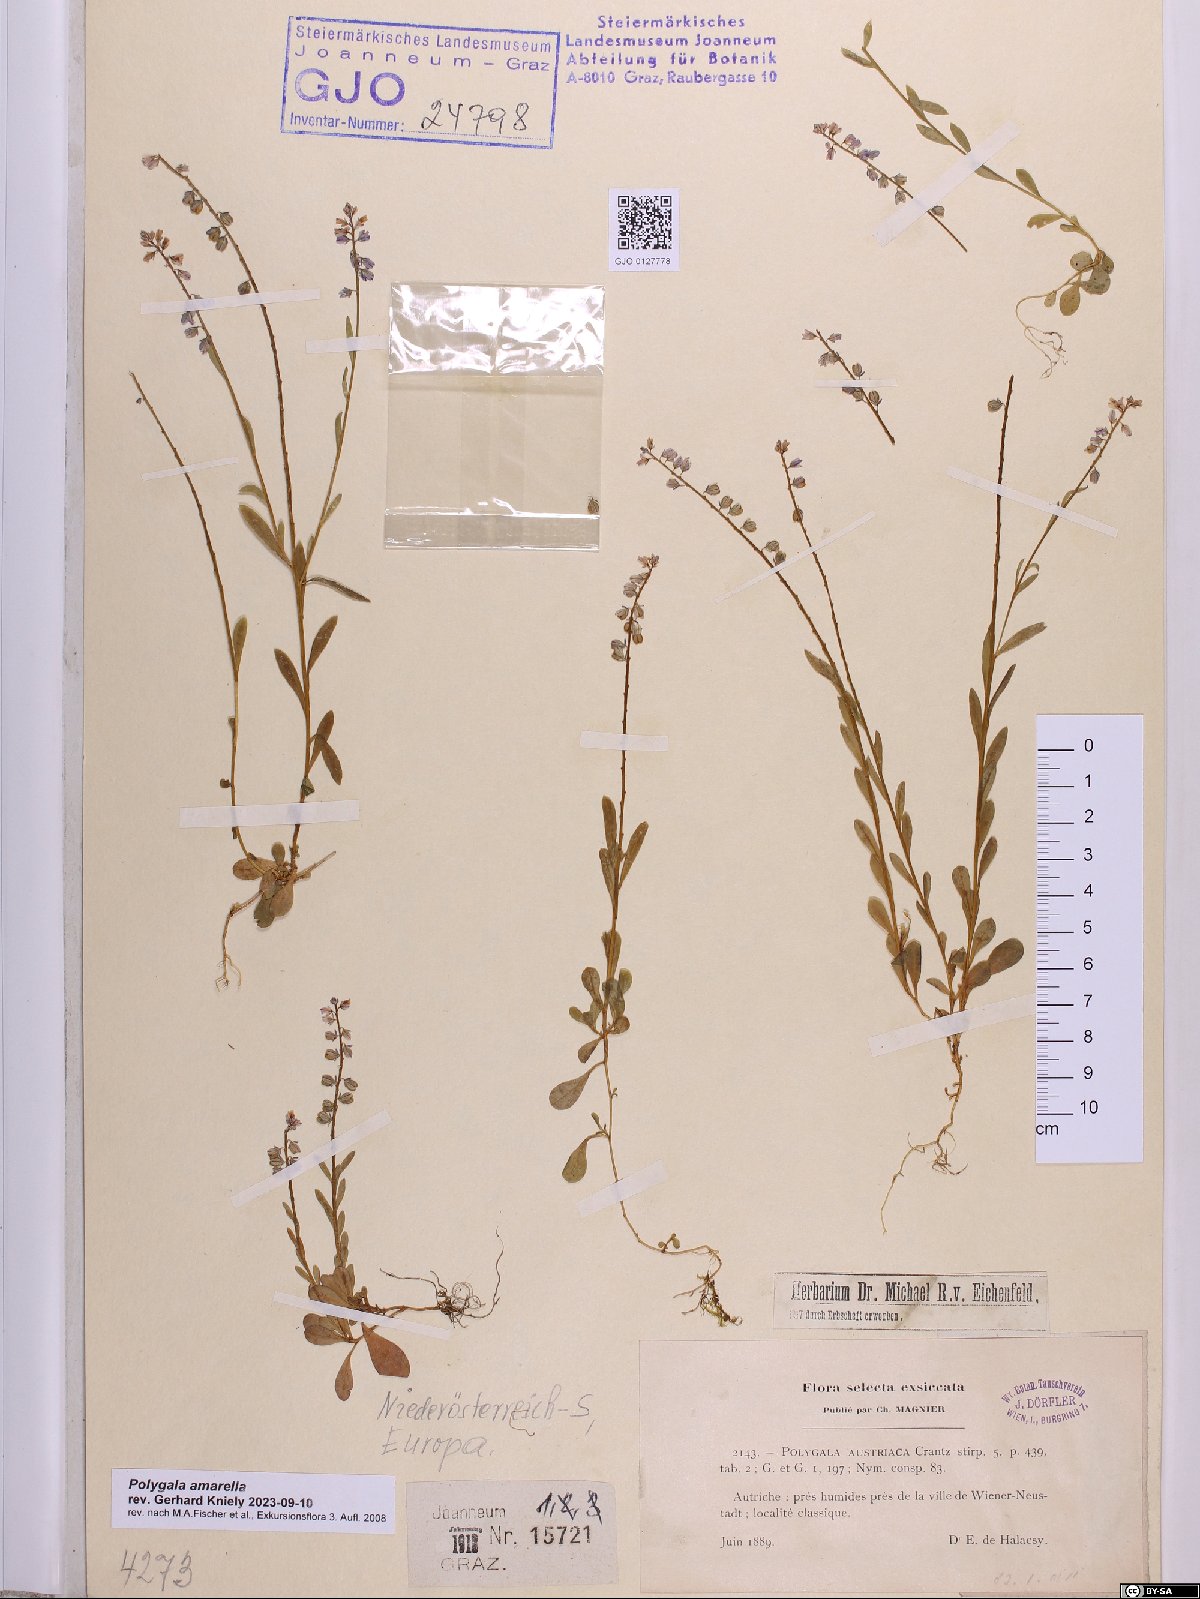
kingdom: Plantae
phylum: Tracheophyta
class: Magnoliopsida
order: Fabales
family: Polygalaceae
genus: Polygala
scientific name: Polygala amarella
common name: Dwarf milkwort
